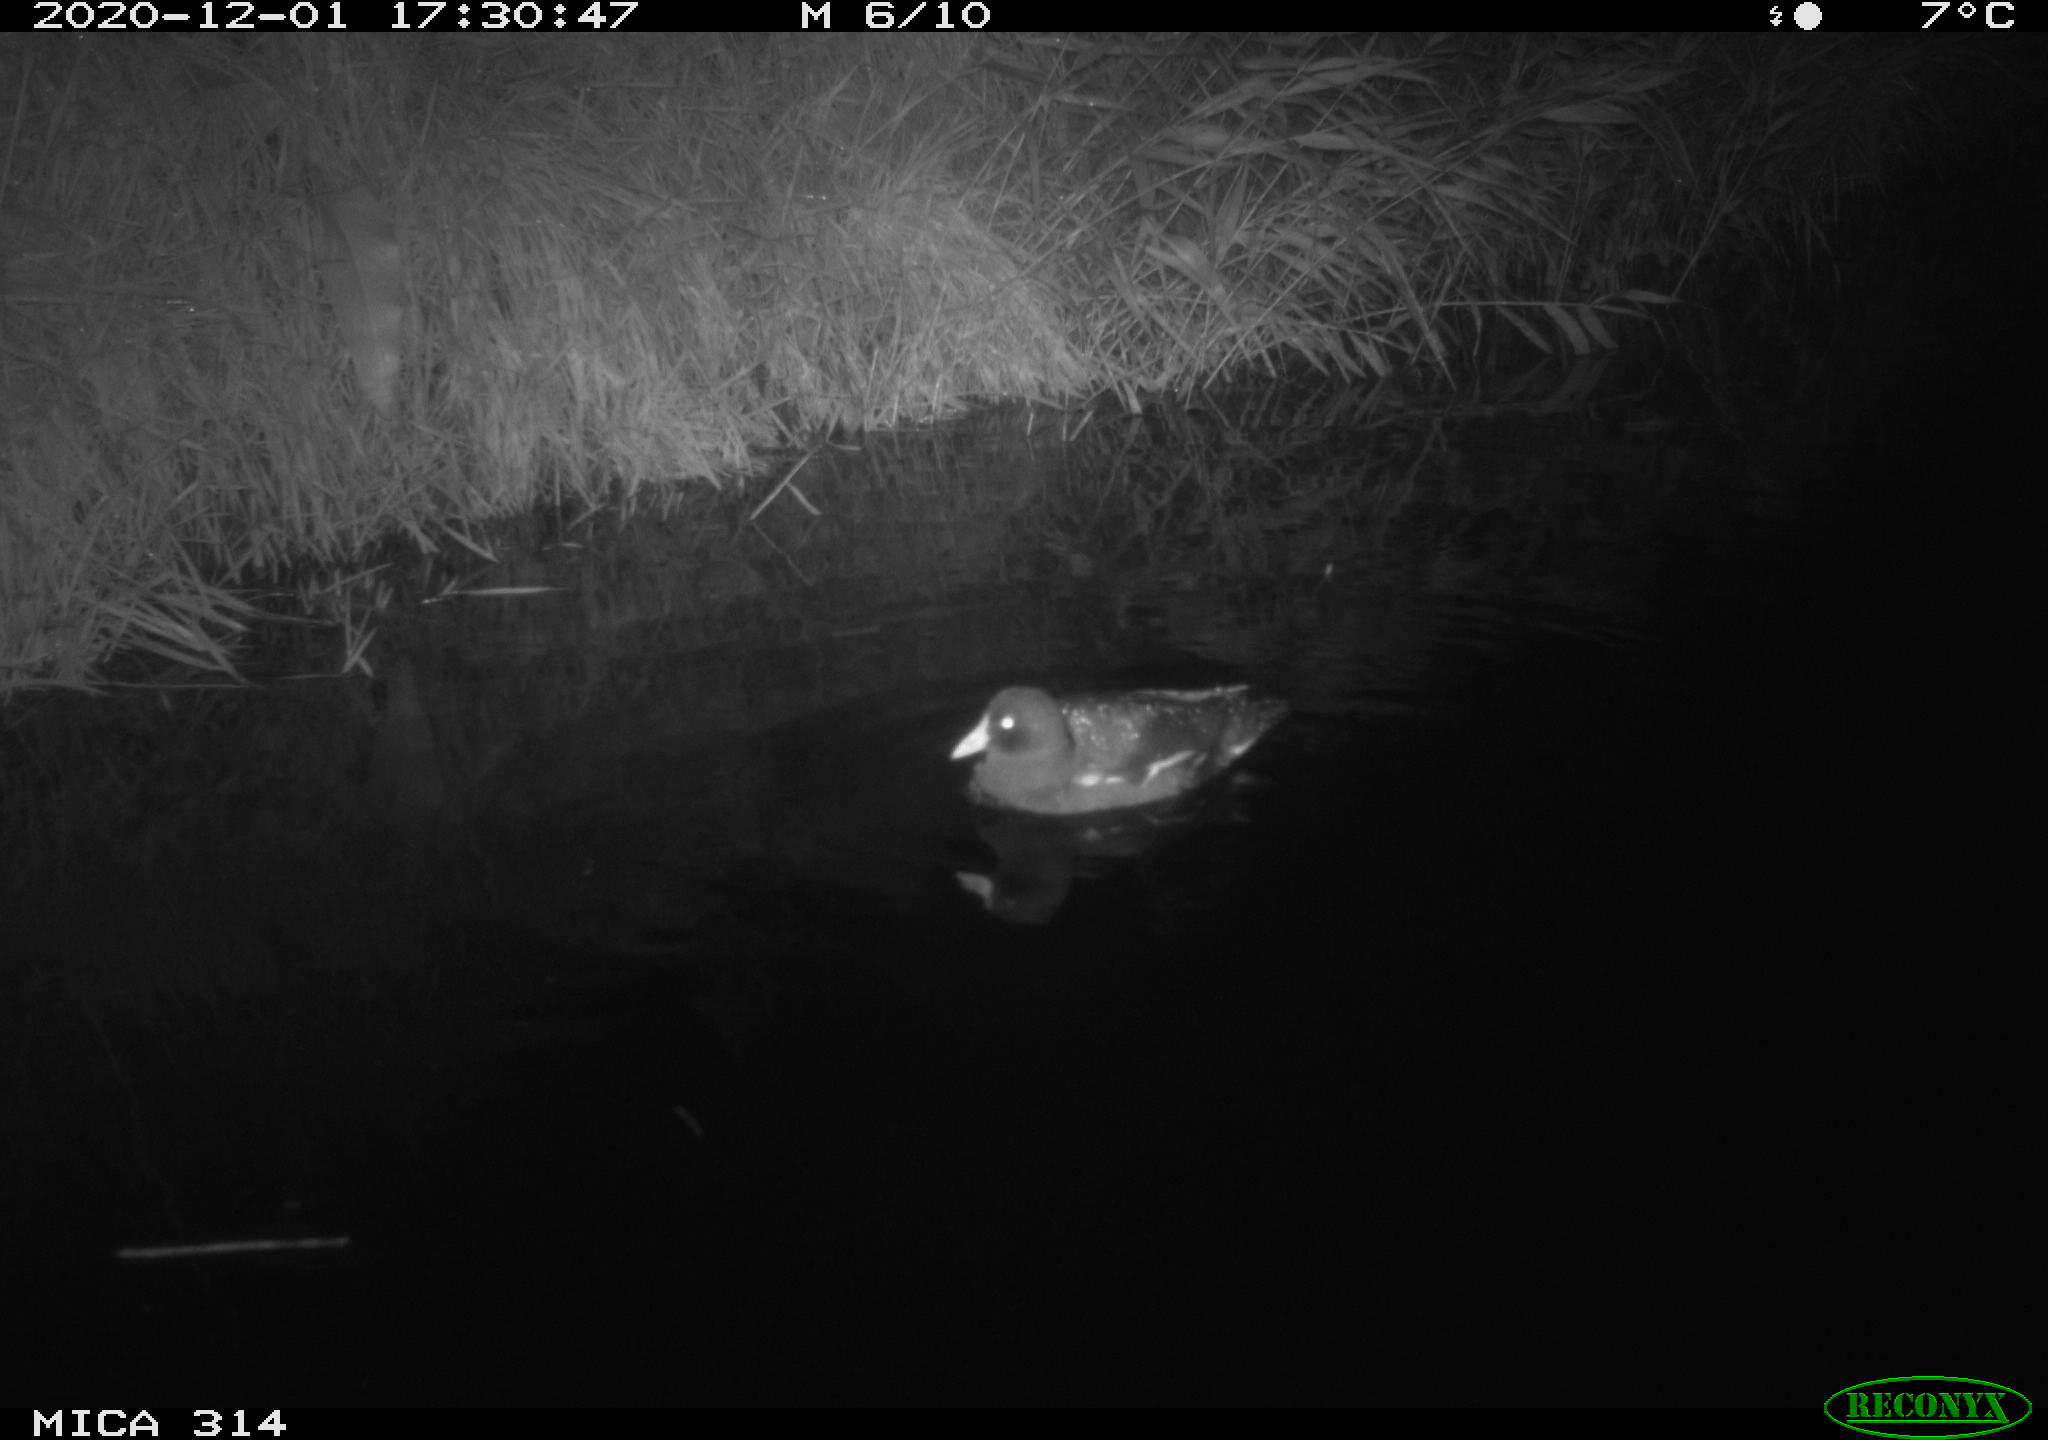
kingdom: Animalia
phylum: Chordata
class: Aves
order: Gruiformes
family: Rallidae
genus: Gallinula
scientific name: Gallinula chloropus
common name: Common moorhen
